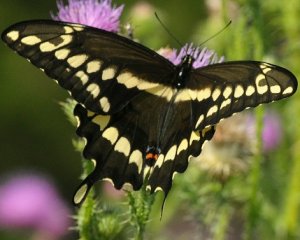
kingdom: Animalia
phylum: Arthropoda
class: Insecta
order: Lepidoptera
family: Papilionidae
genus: Papilio
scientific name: Papilio cresphontes
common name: Eastern Giant Swallowtail
